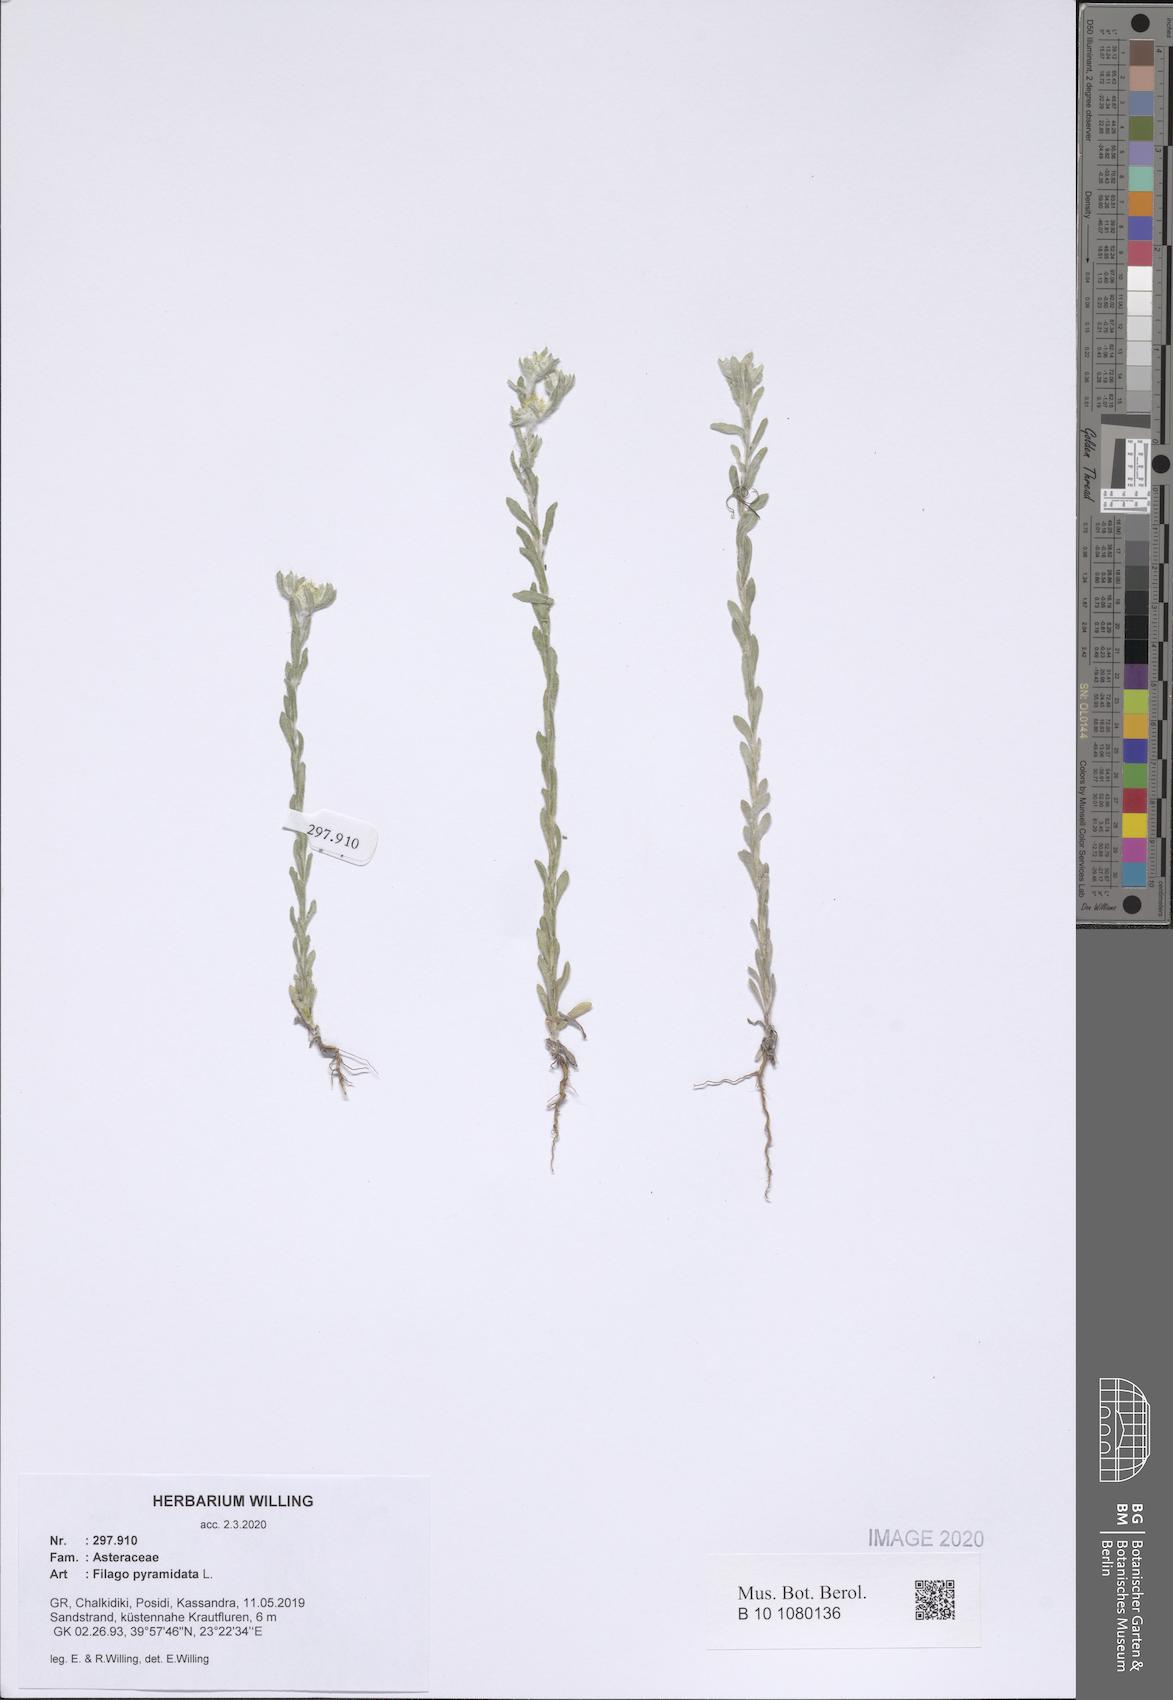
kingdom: Plantae
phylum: Tracheophyta
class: Magnoliopsida
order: Asterales
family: Asteraceae
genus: Filago
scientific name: Filago pyramidata
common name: Broad-leaved cudweed
